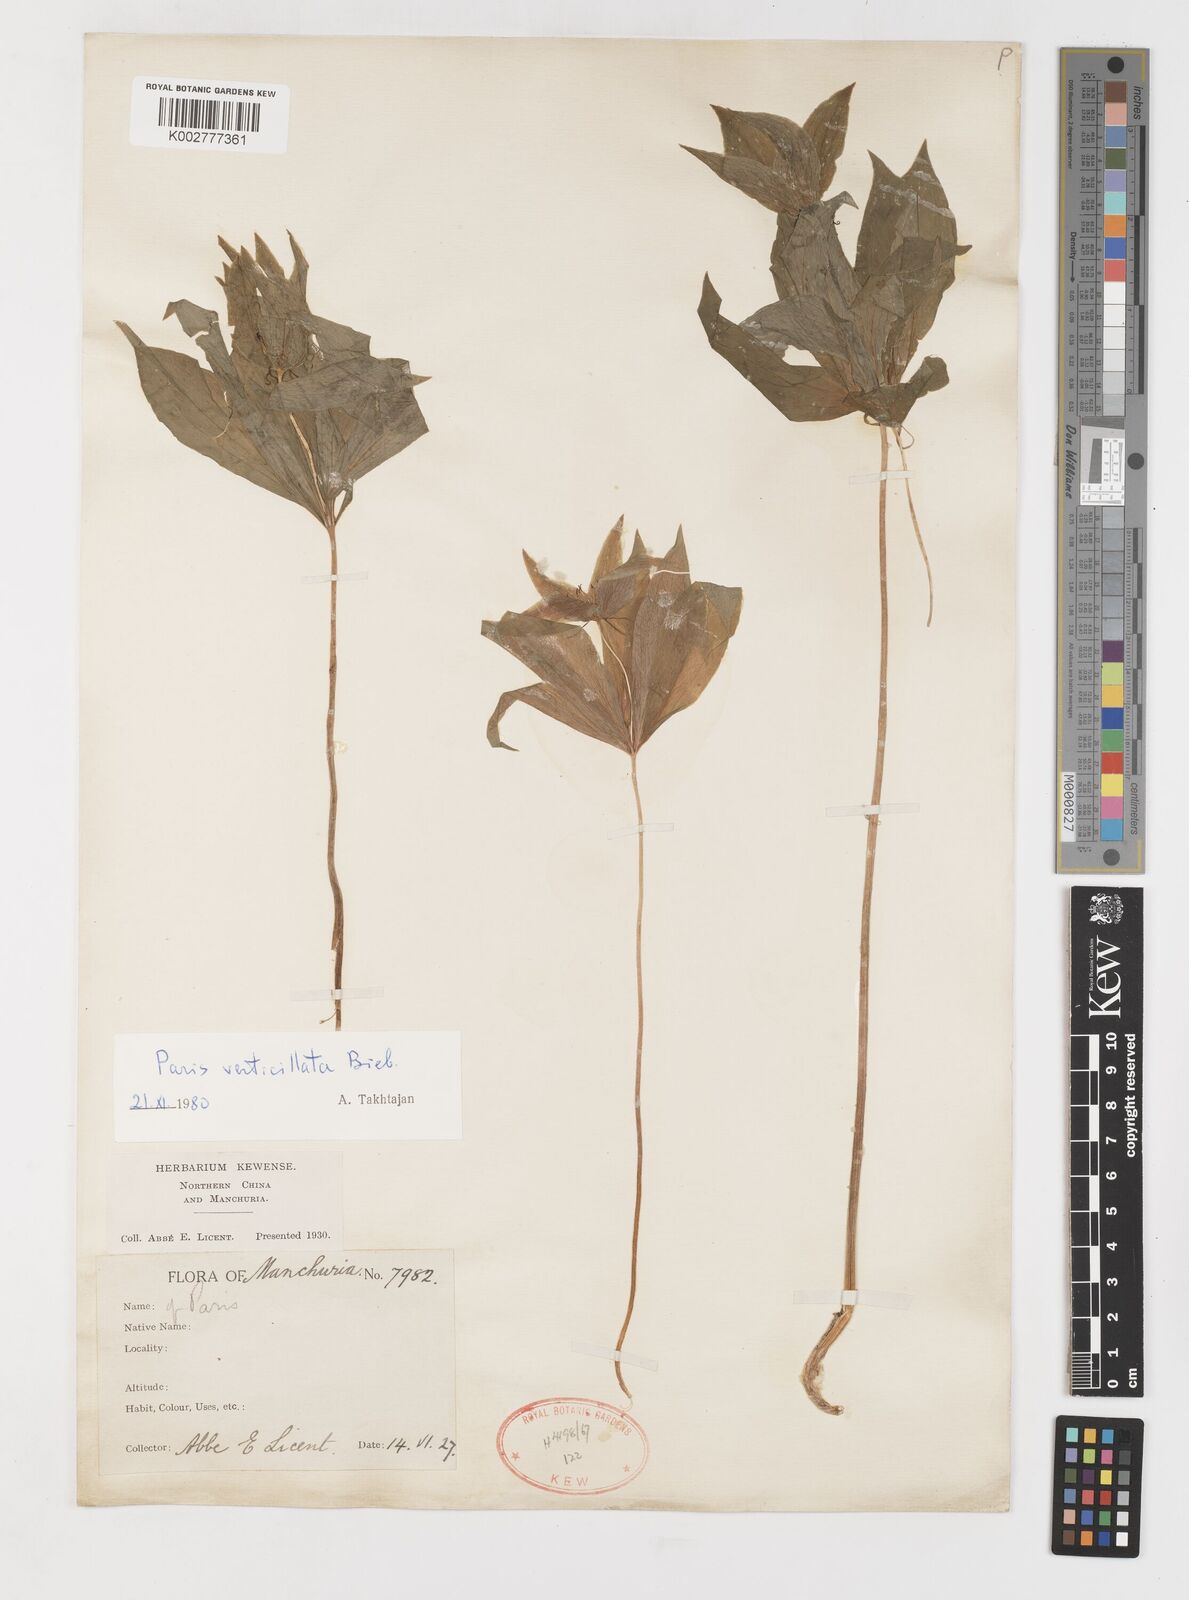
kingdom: Plantae
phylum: Tracheophyta
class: Liliopsida
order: Liliales
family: Melanthiaceae
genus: Paris
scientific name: Paris verticillata
